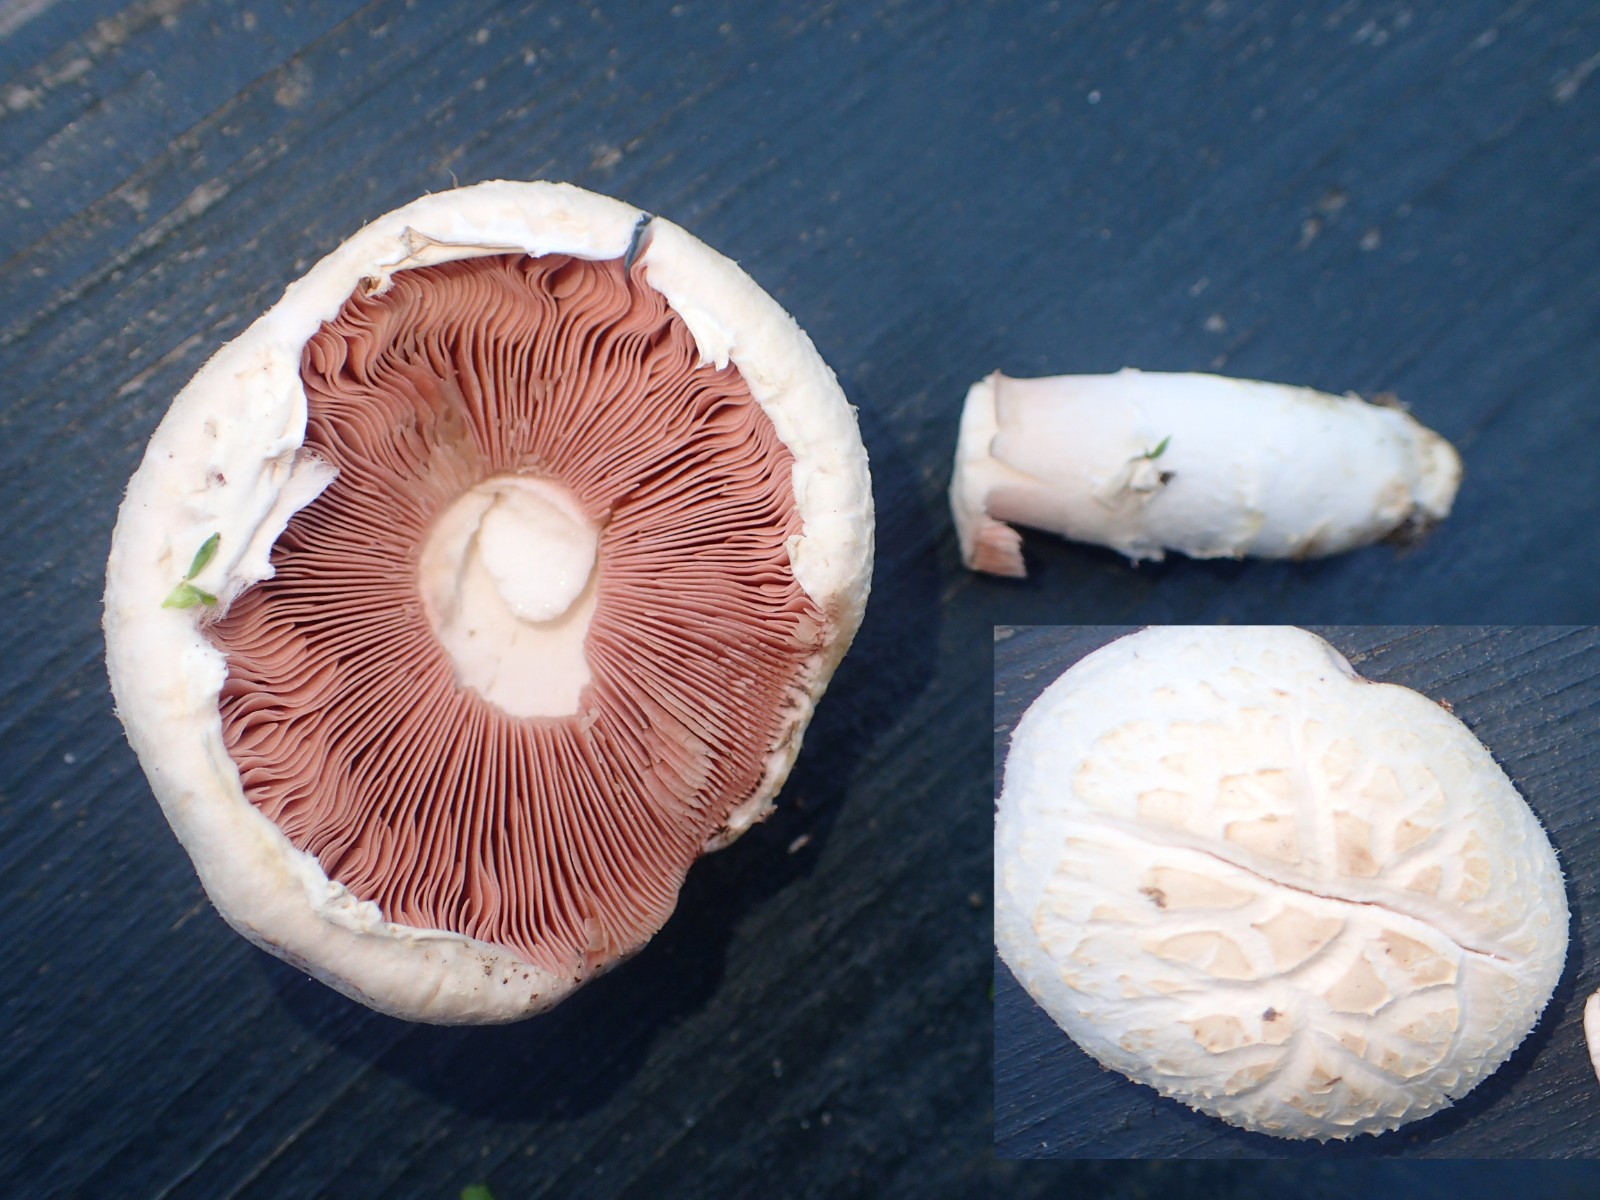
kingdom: Fungi
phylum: Basidiomycota
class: Agaricomycetes
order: Agaricales
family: Agaricaceae
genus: Agaricus
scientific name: Agaricus campestris
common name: mark-champignon
